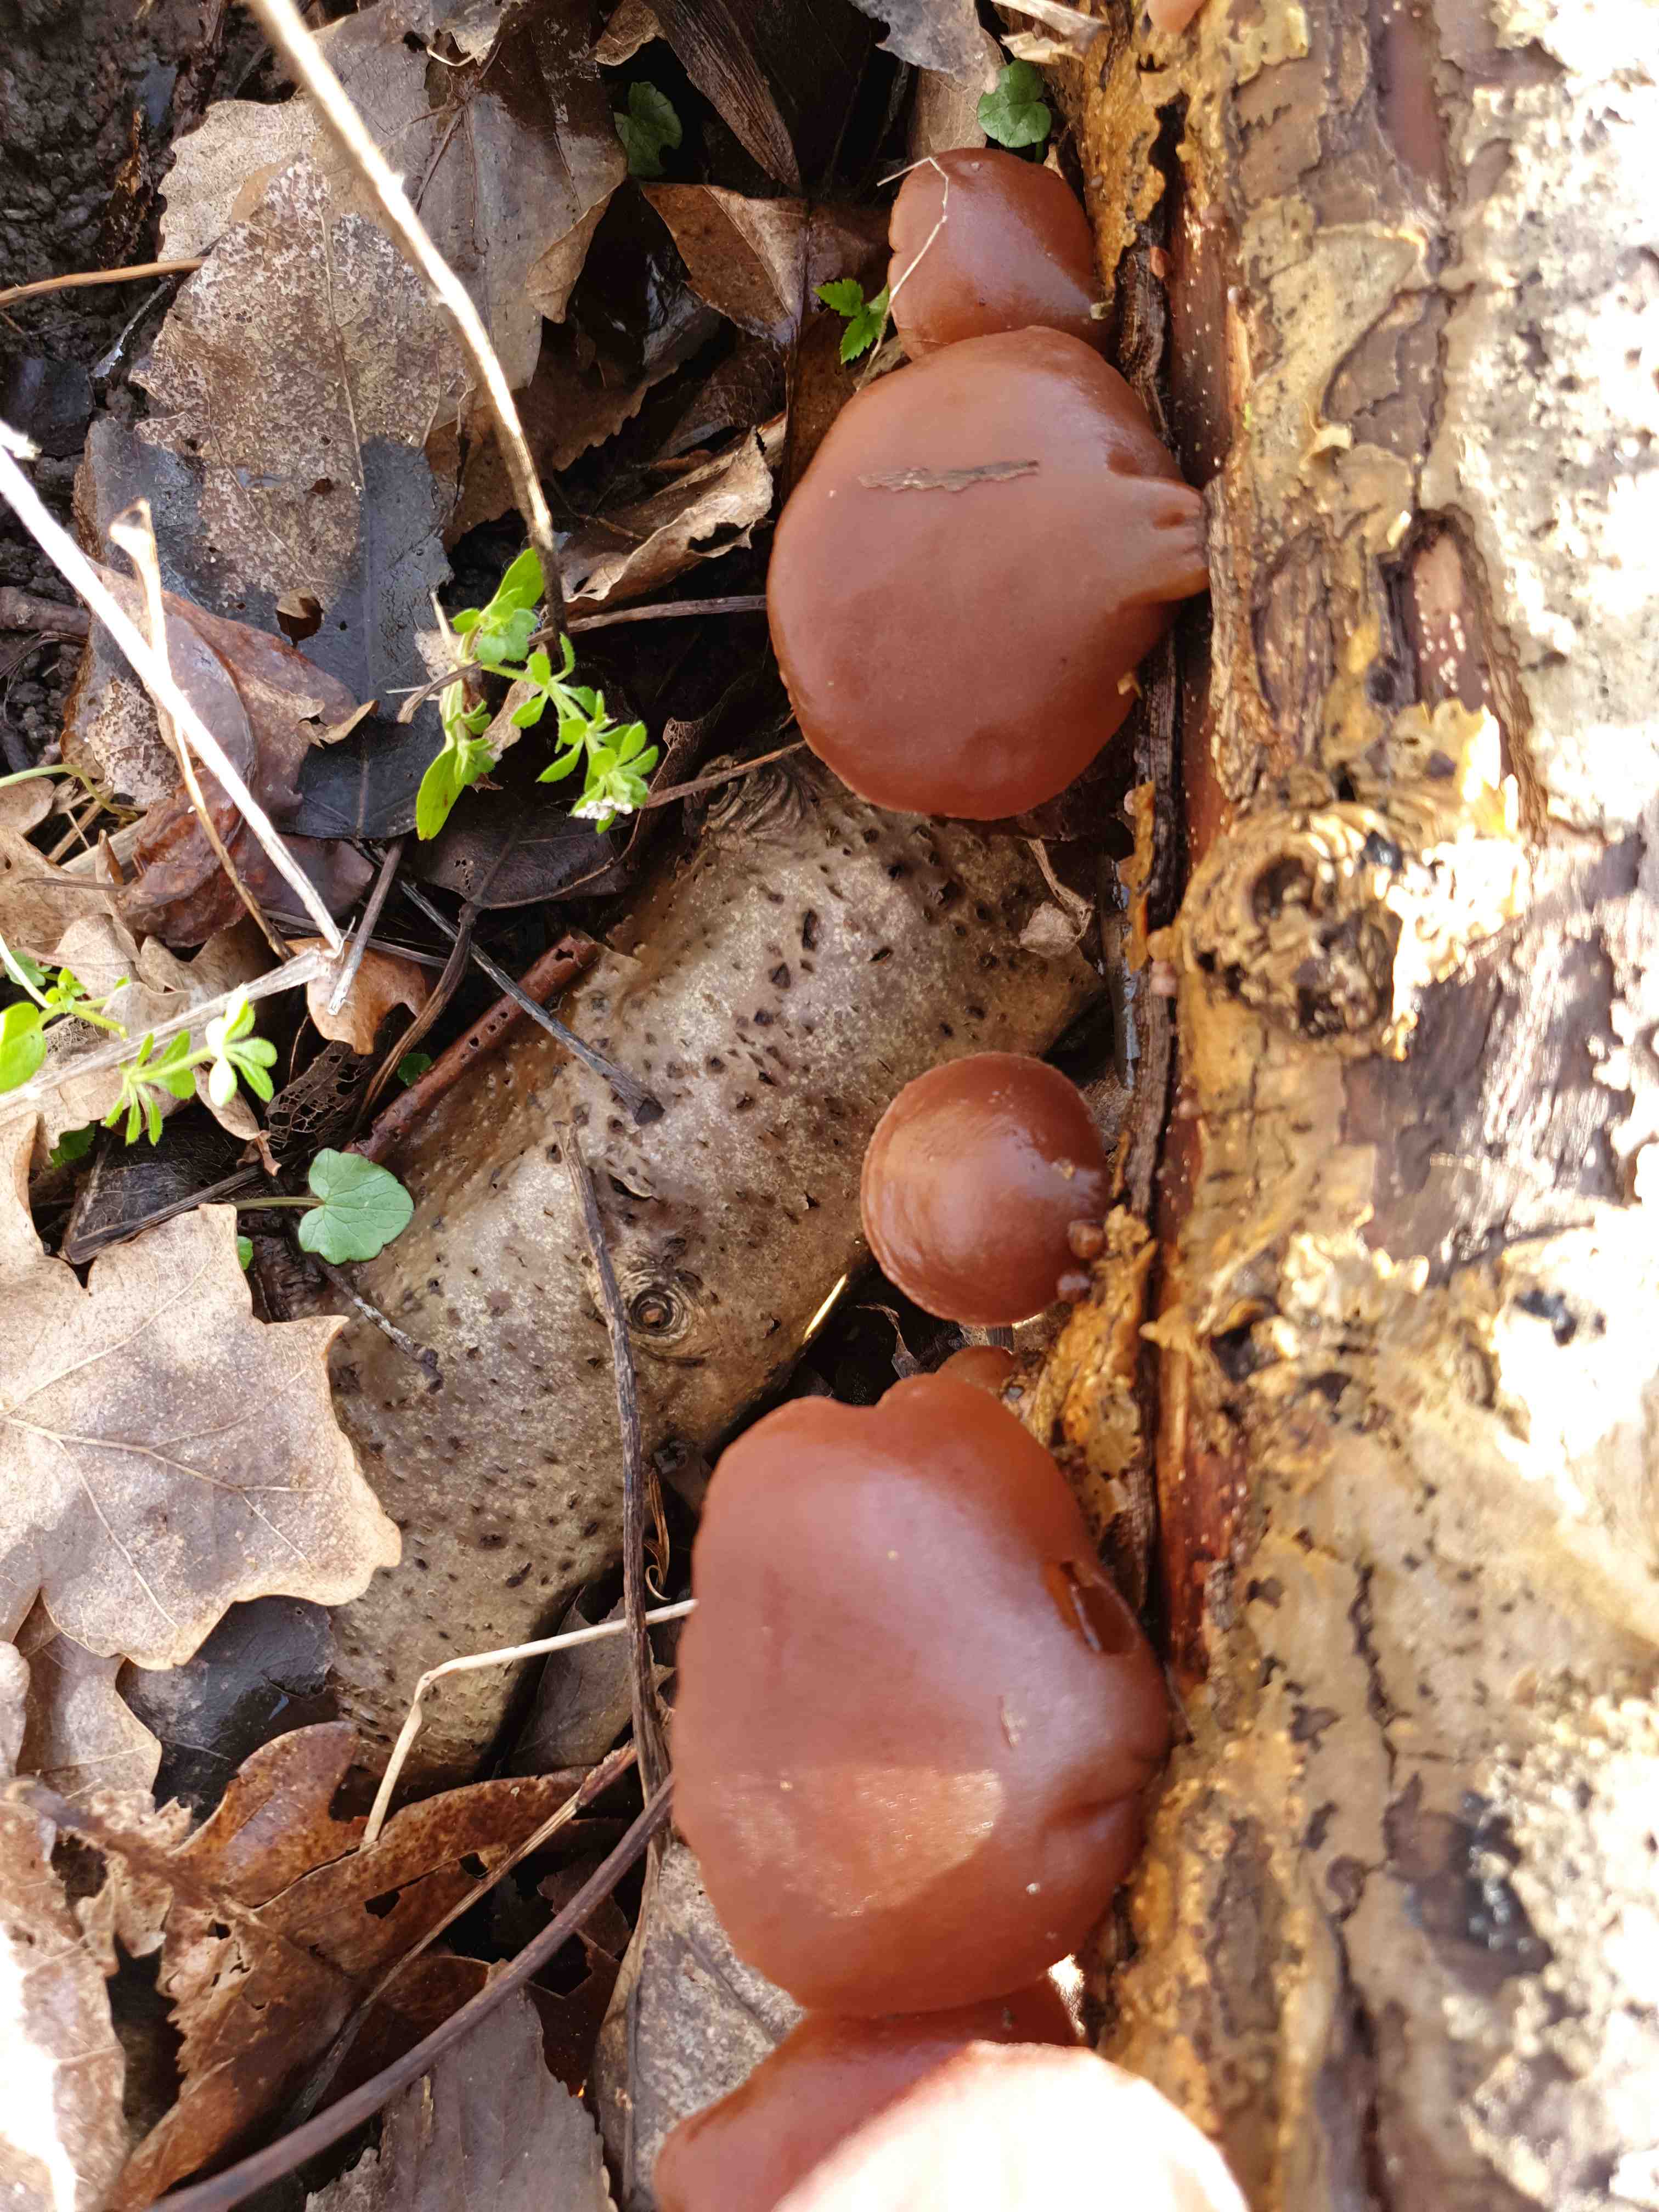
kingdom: Fungi
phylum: Basidiomycota
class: Agaricomycetes
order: Auriculariales
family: Auriculariaceae
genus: Auricularia
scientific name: Auricularia auricula-judae
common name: almindelig judasøre
